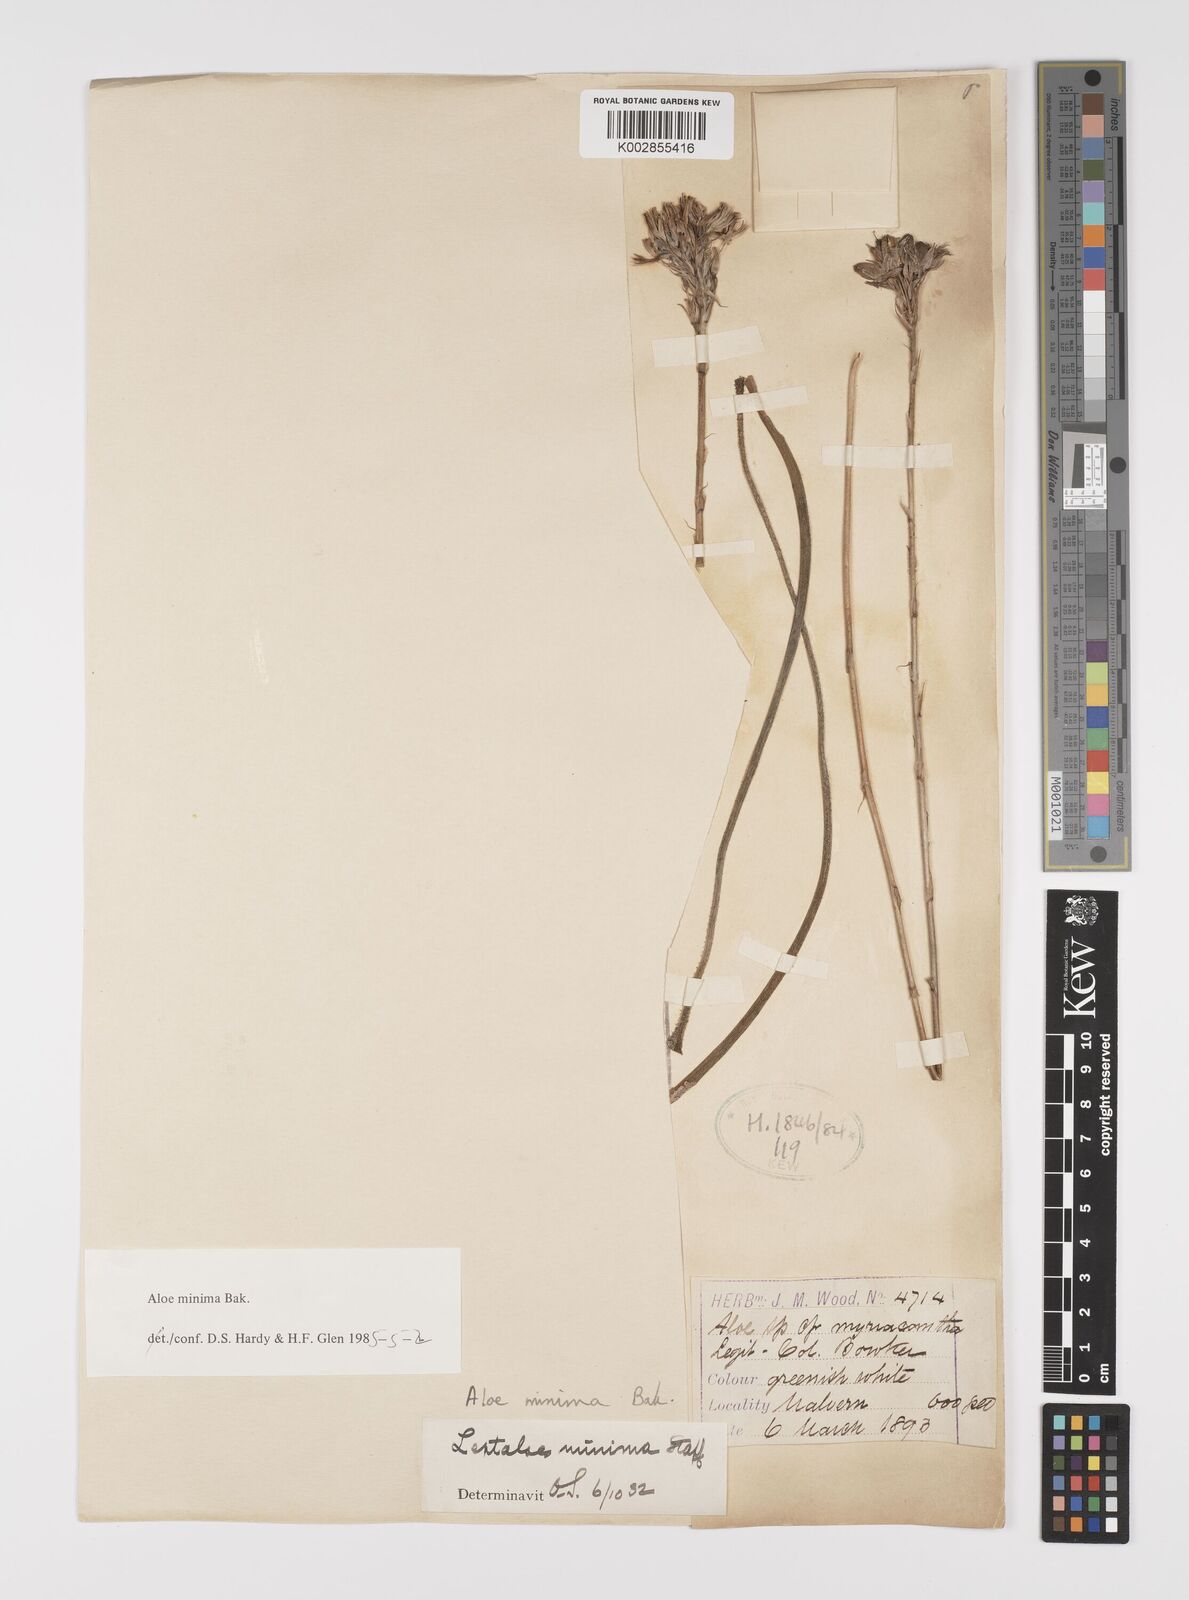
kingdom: Plantae
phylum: Tracheophyta
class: Liliopsida
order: Asparagales
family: Asphodelaceae
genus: Aloe
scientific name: Aloe minima
